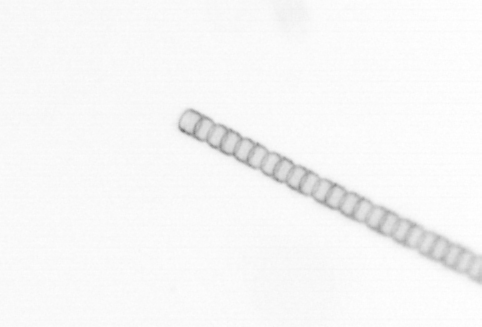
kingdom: Chromista
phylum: Ochrophyta
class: Bacillariophyceae
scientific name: Bacillariophyceae
